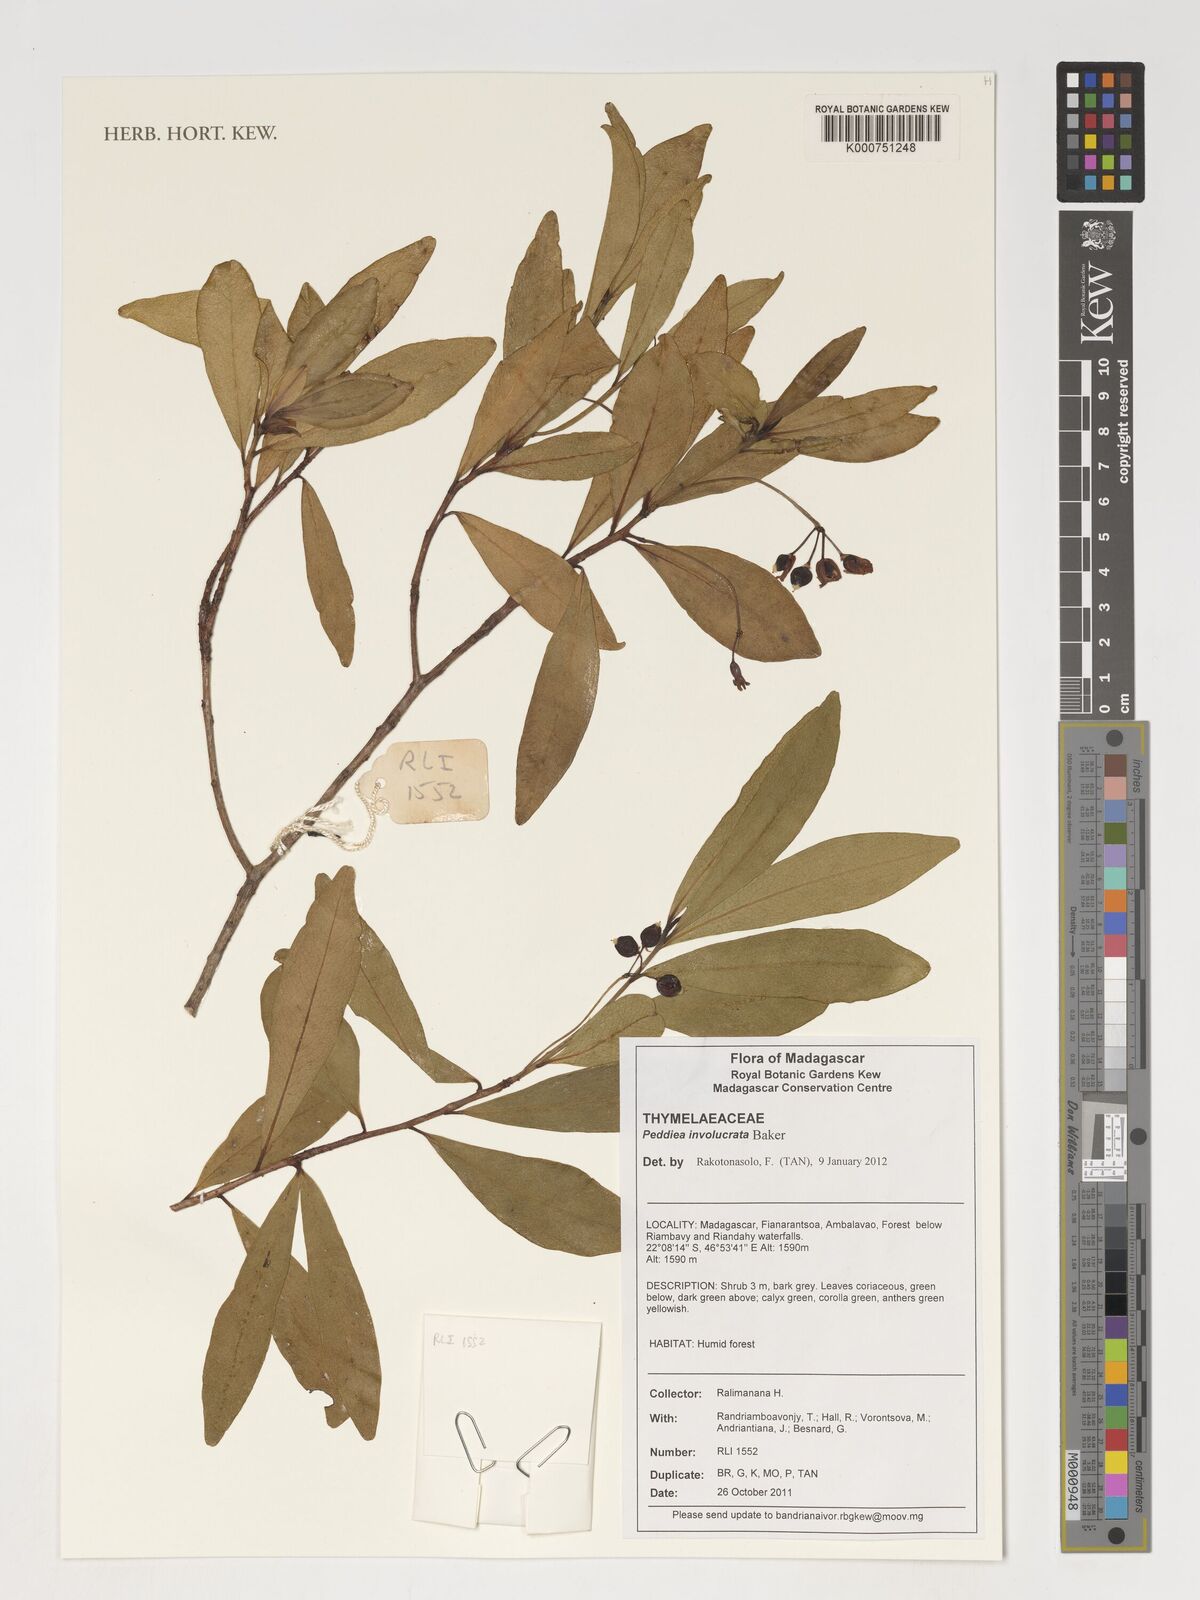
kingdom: Plantae
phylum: Tracheophyta
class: Magnoliopsida
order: Malvales
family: Thymelaeaceae
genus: Peddiea
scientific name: Peddiea involucrata
